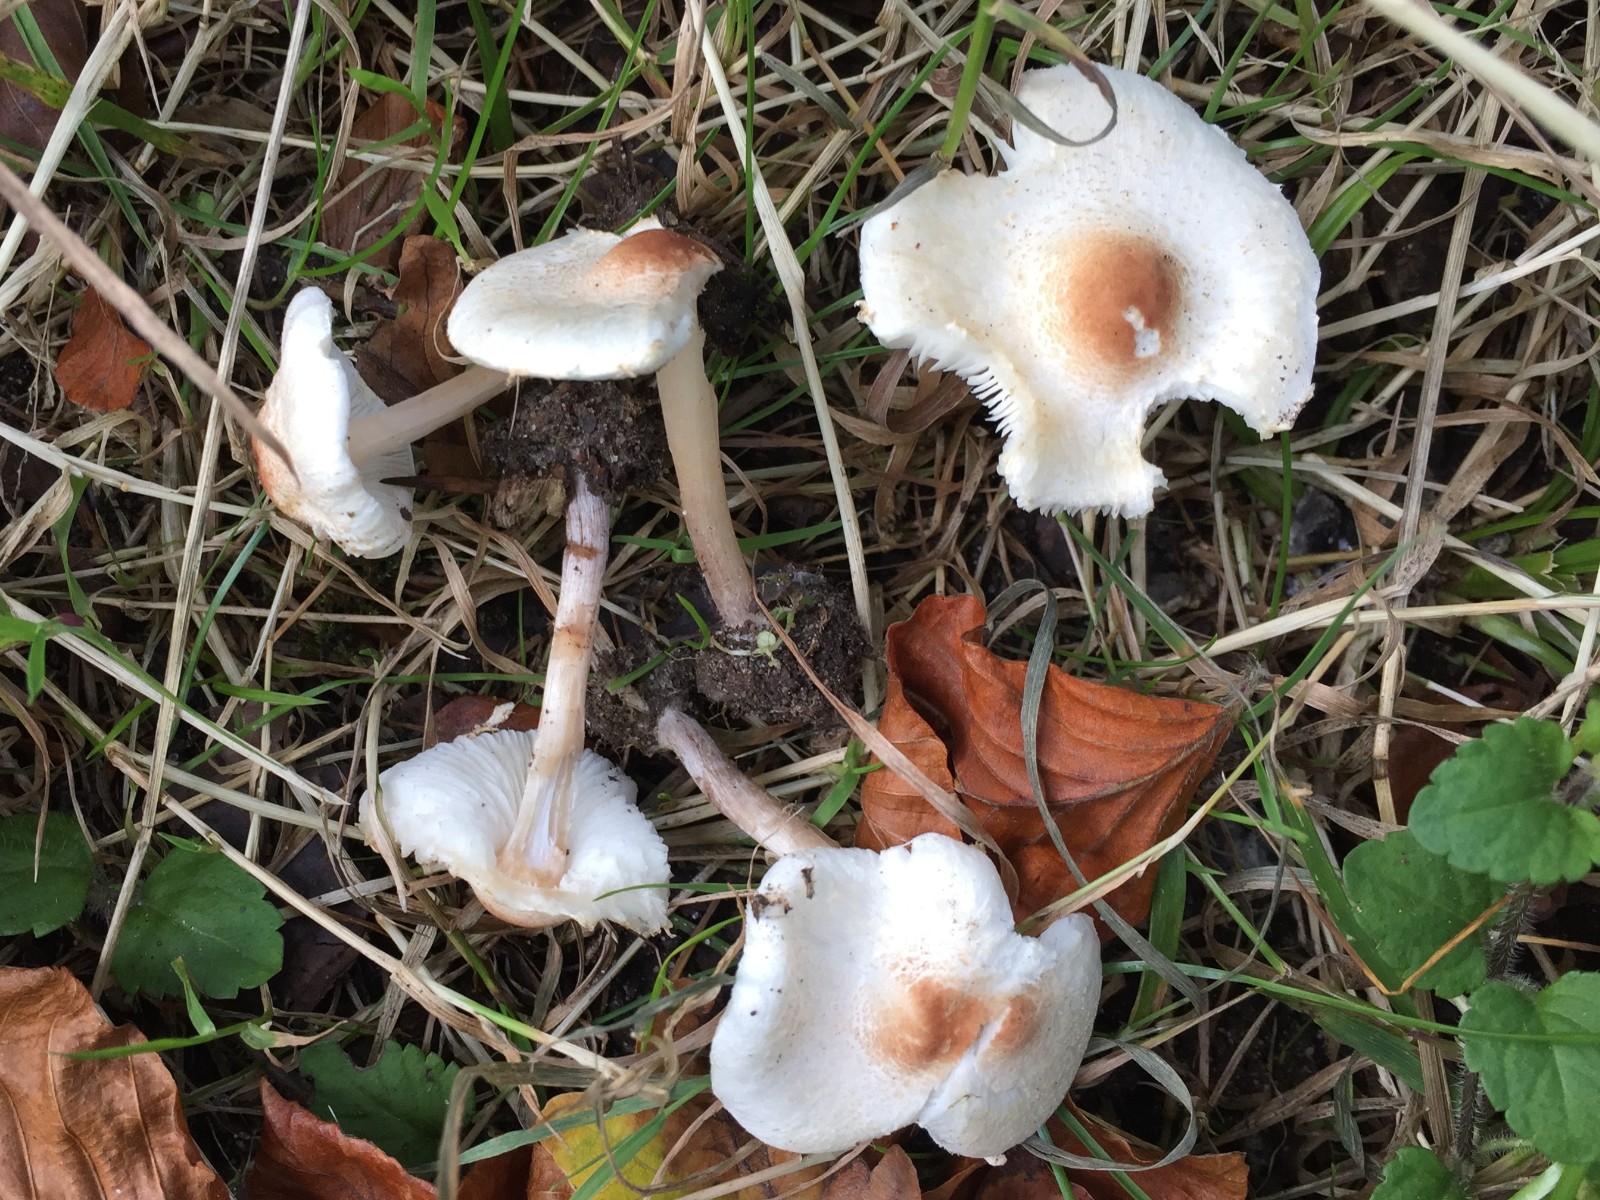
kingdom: Fungi
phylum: Basidiomycota
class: Agaricomycetes
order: Agaricales
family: Agaricaceae
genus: Lepiota
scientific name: Lepiota cristata
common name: stinkende parasolhat
